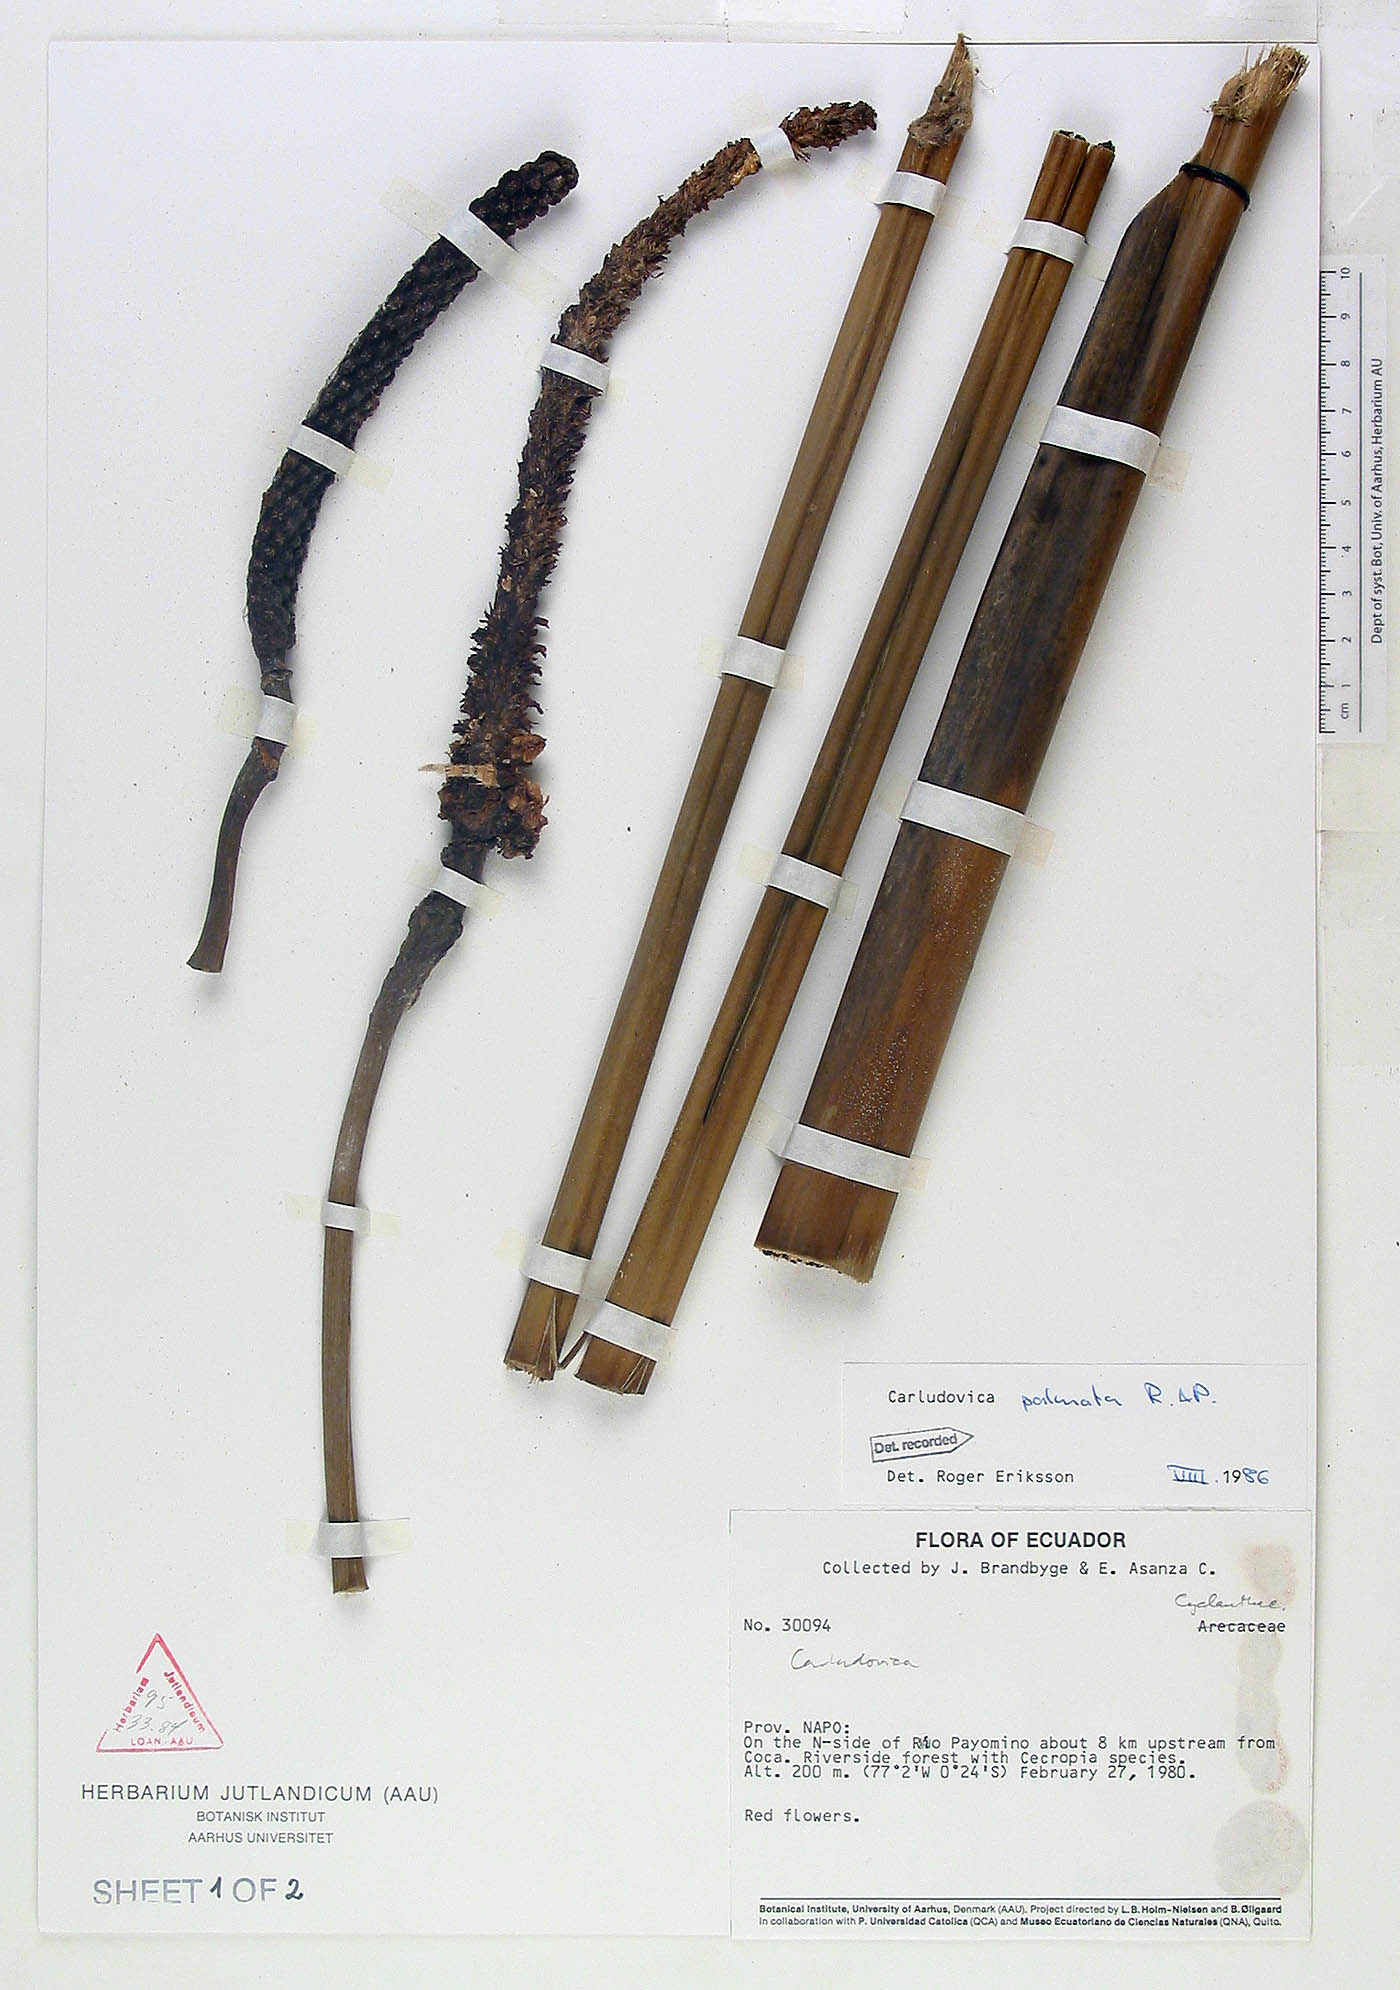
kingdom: Plantae
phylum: Tracheophyta
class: Liliopsida
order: Pandanales
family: Cyclanthaceae
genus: Carludovica
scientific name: Carludovica palmata
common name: Panama hat plant
